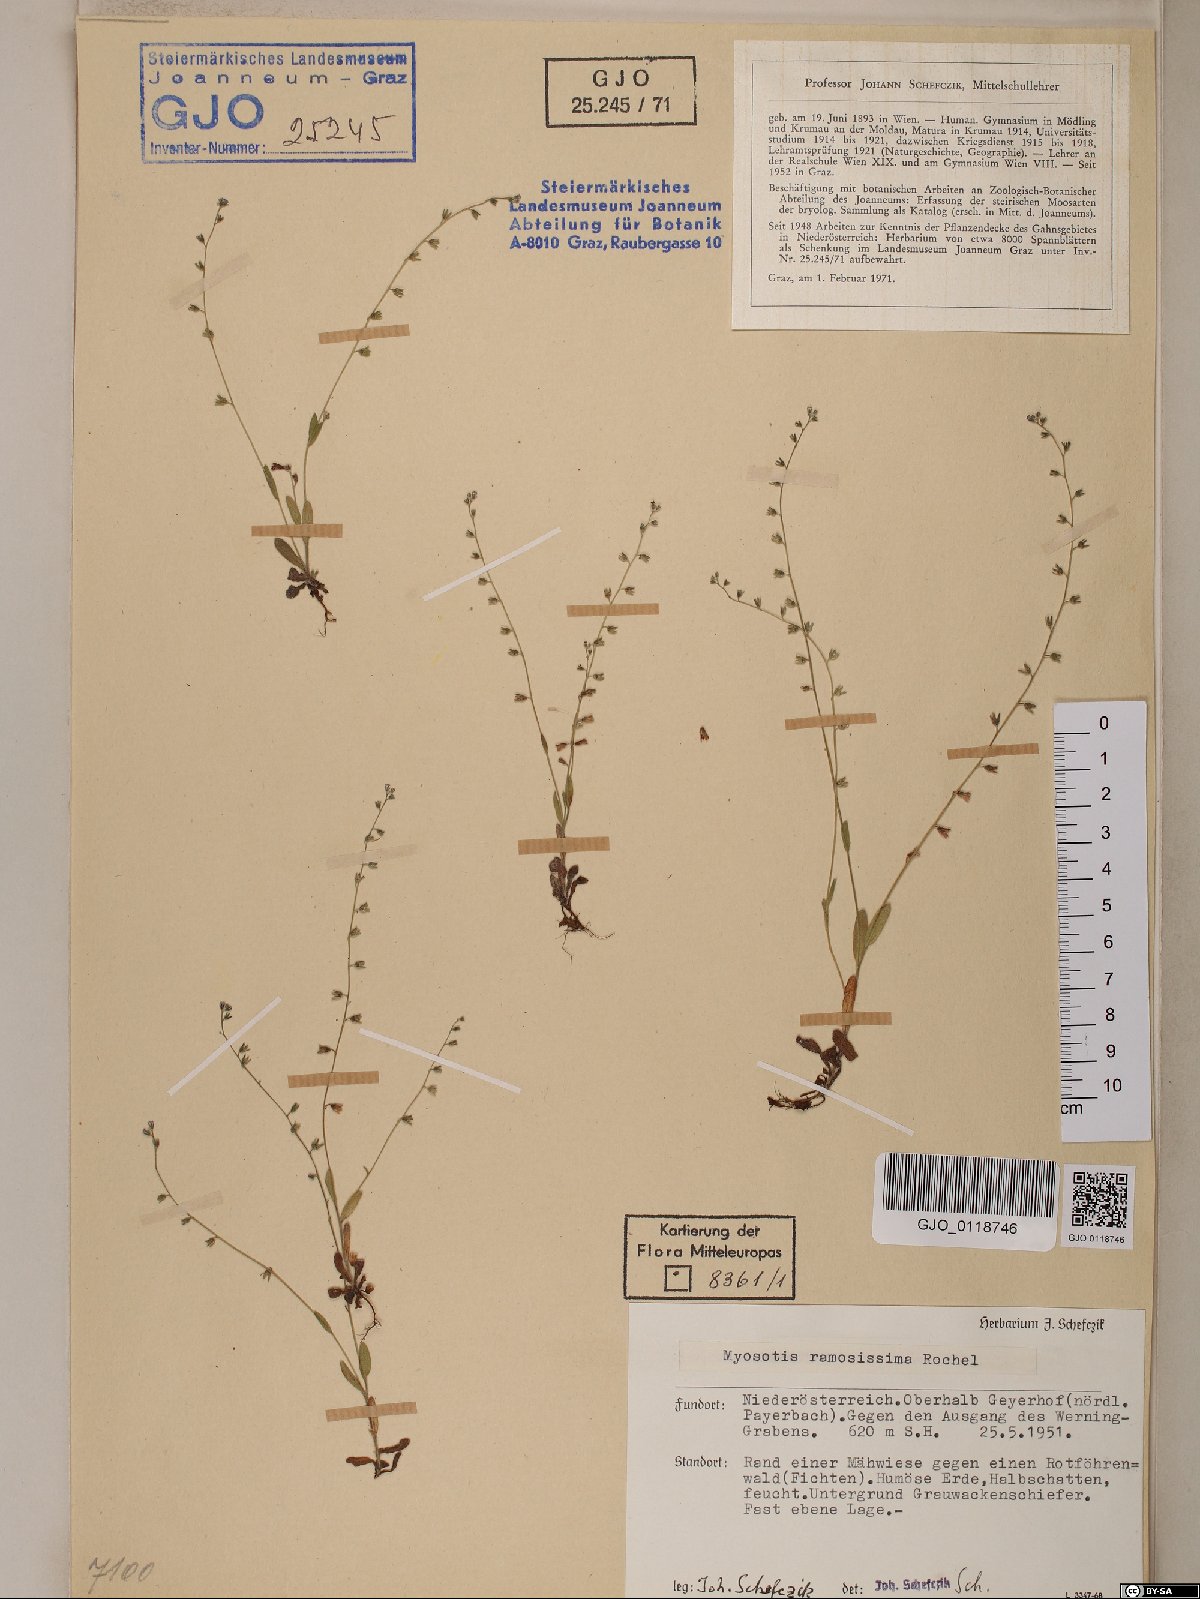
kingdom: Plantae
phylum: Tracheophyta
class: Magnoliopsida
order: Boraginales
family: Boraginaceae
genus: Myosotis
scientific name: Myosotis ramosissima
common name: Early forget-me-not
